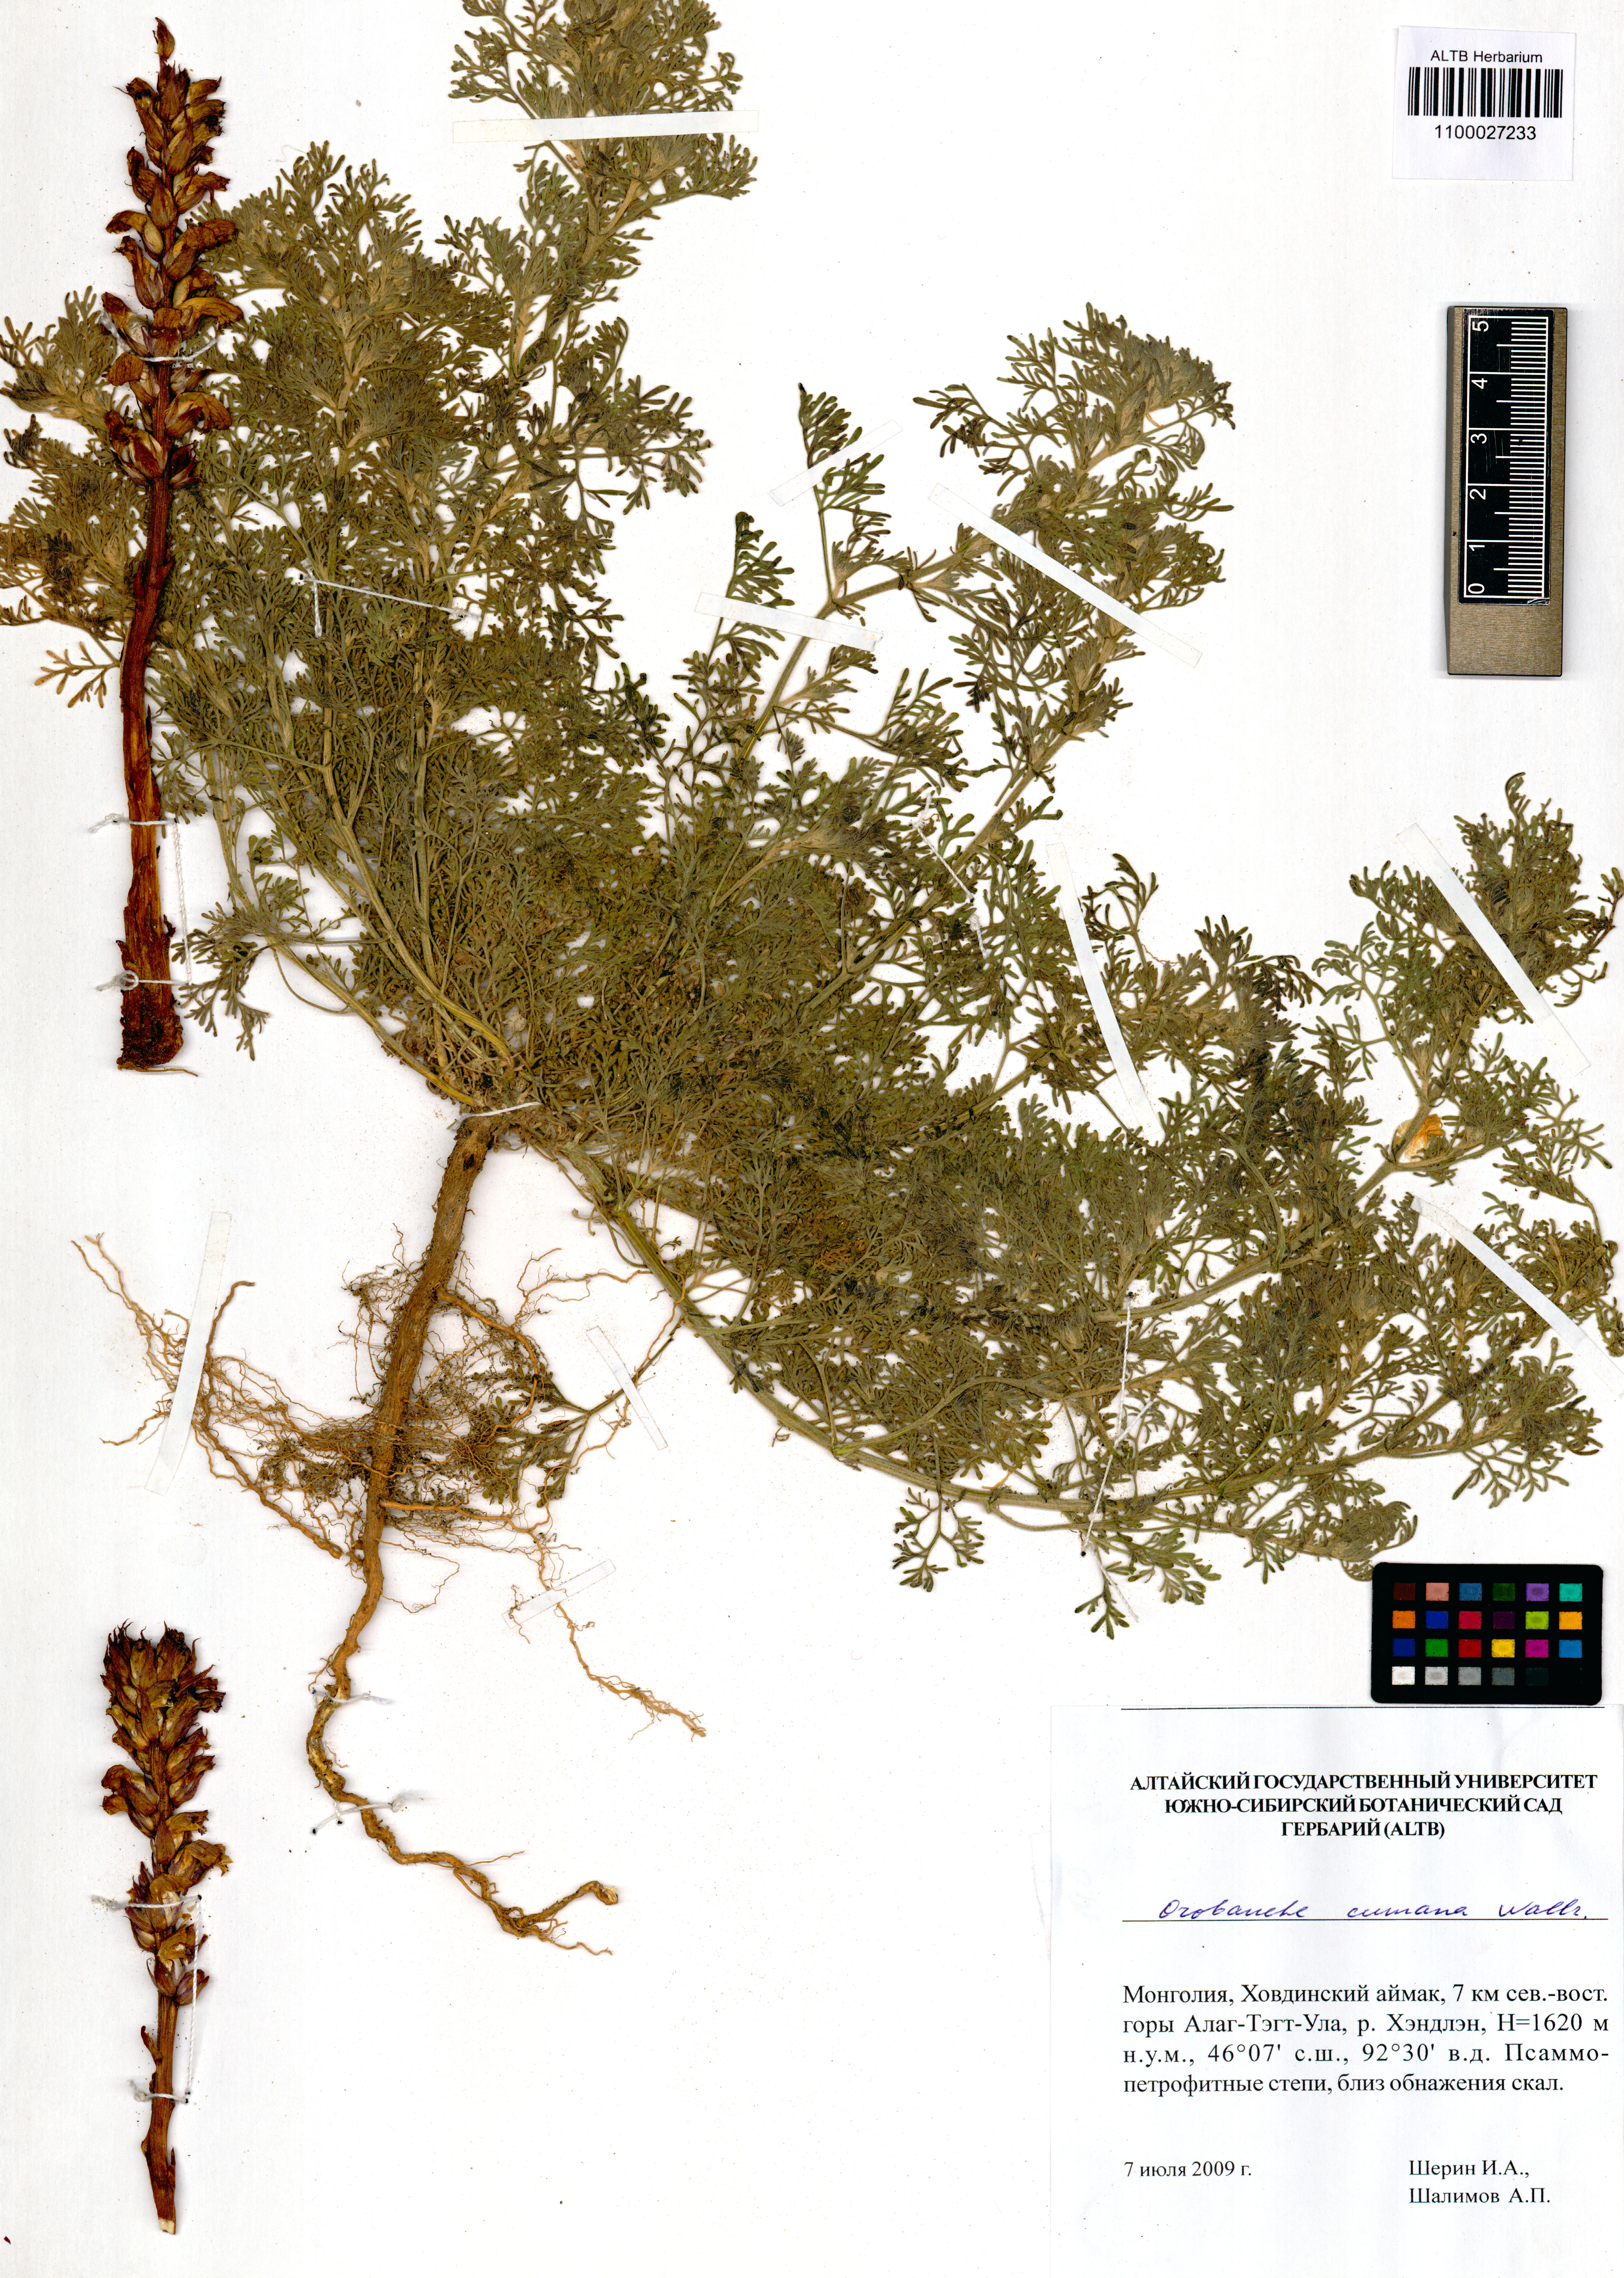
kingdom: Plantae
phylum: Tracheophyta
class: Magnoliopsida
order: Lamiales
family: Orobanchaceae
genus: Orobanche
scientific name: Orobanche cumana
